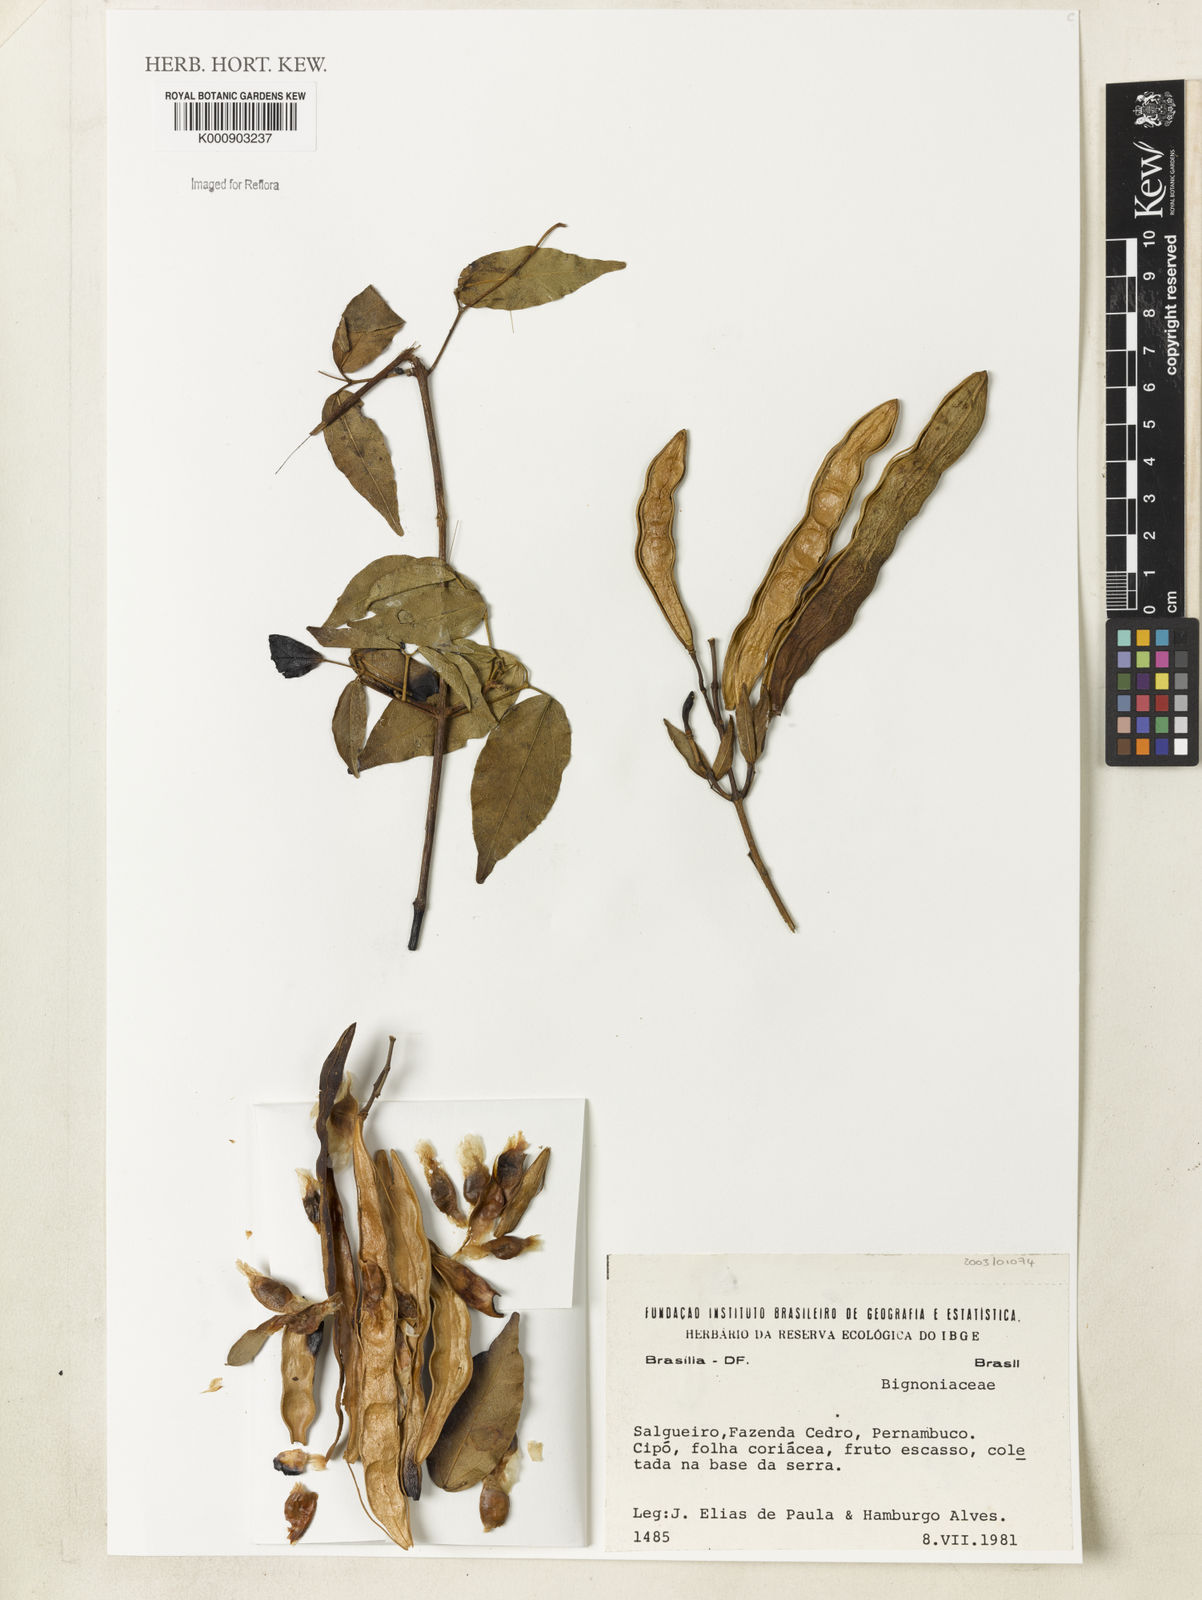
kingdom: Plantae
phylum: Tracheophyta
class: Magnoliopsida
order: Lamiales
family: Bignoniaceae
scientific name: Bignoniaceae
